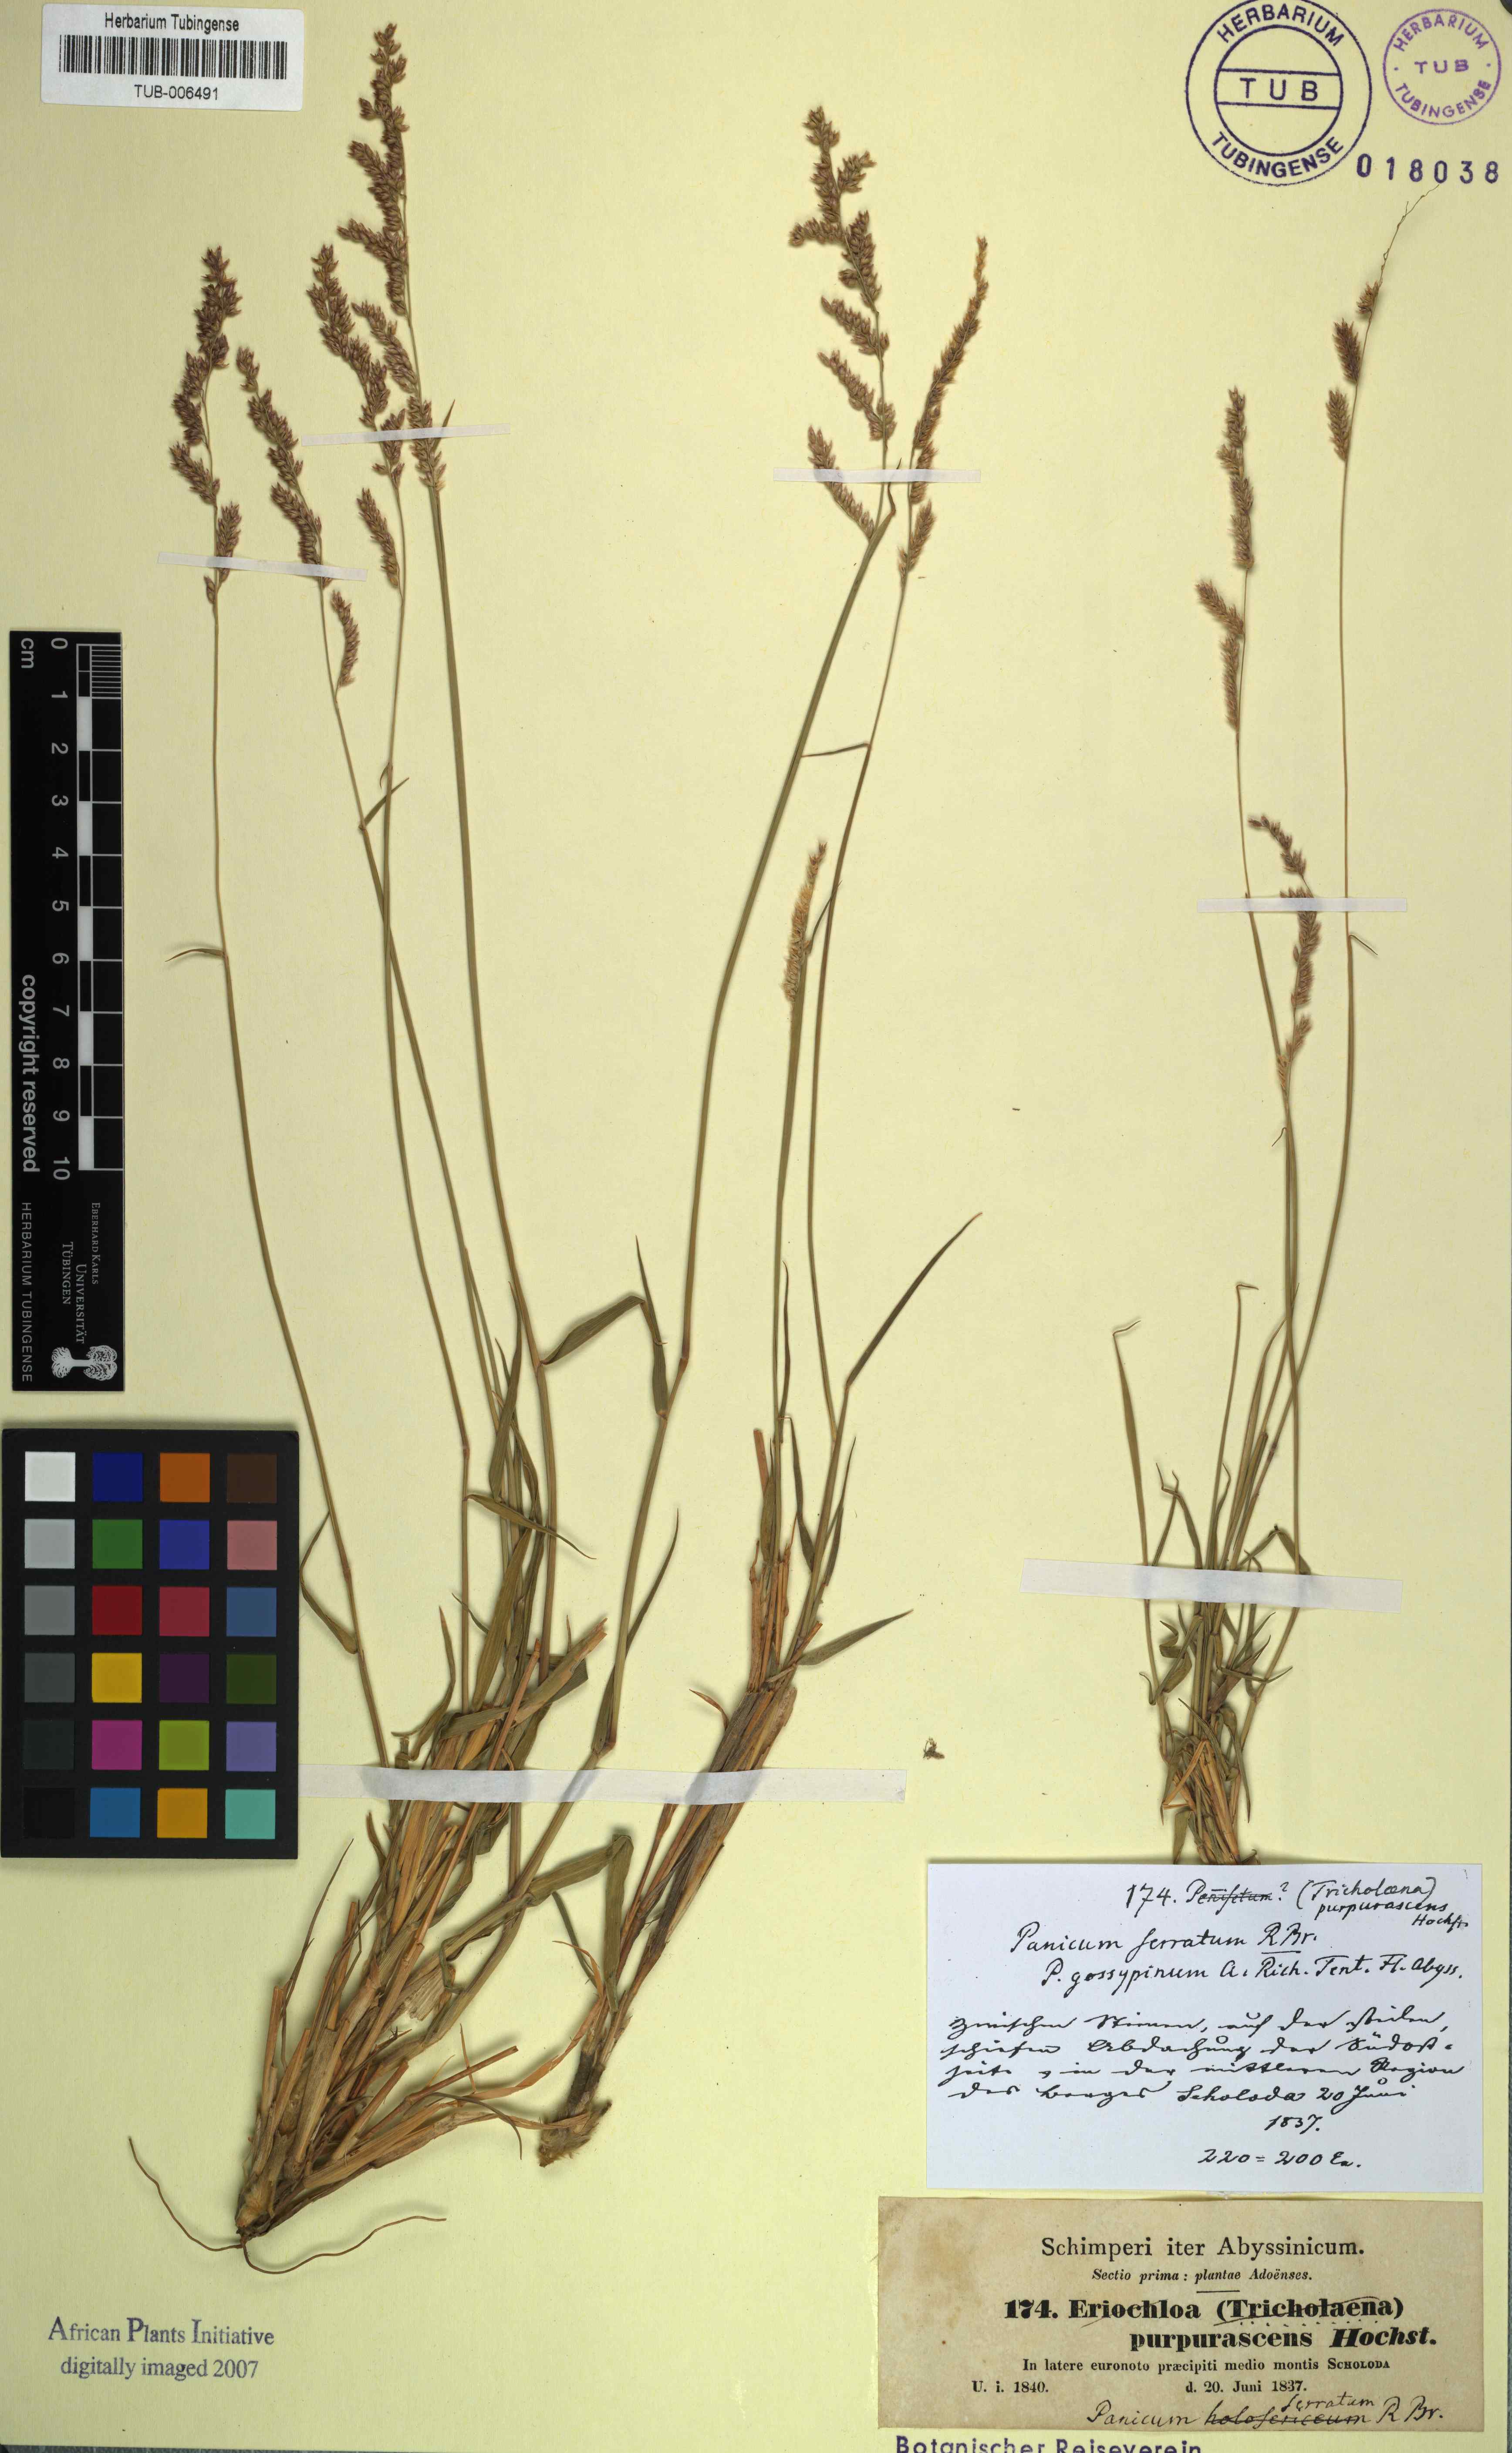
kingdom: Plantae
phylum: Tracheophyta
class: Liliopsida
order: Poales
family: Poaceae
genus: Urochloa
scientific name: Urochloa serrata
